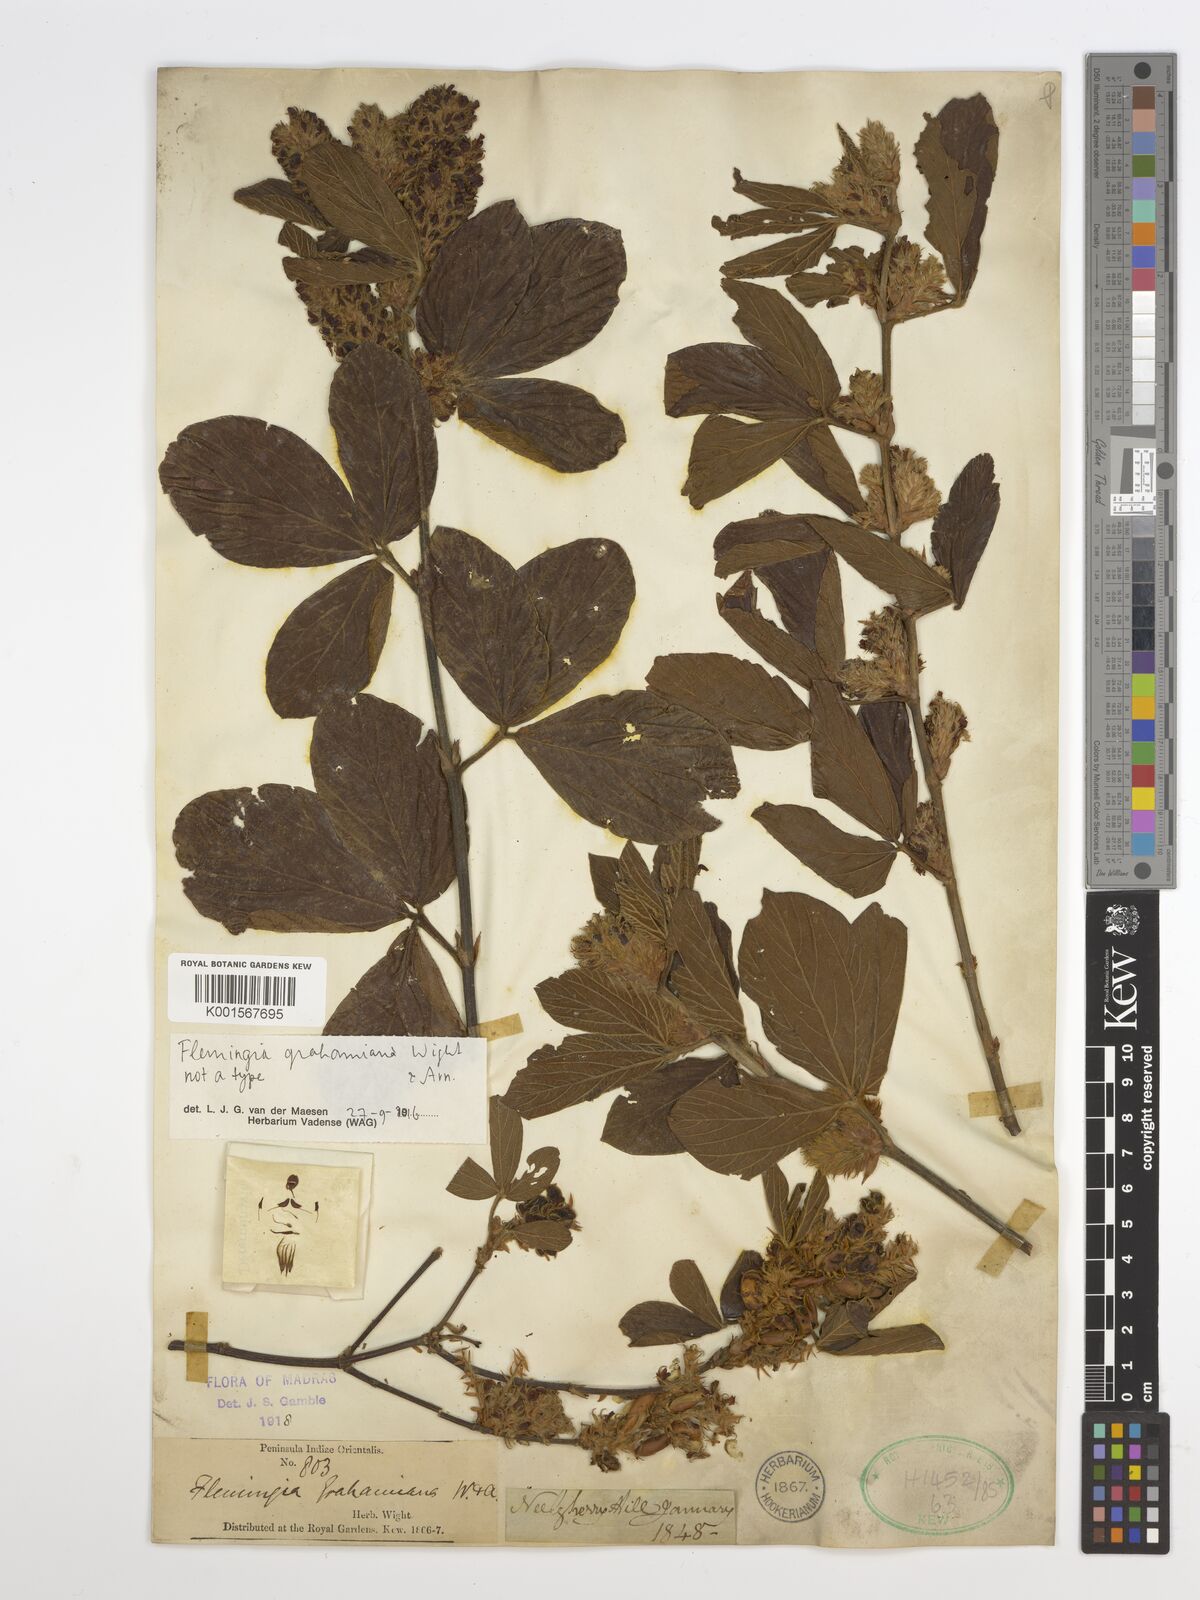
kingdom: Plantae
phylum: Tracheophyta
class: Magnoliopsida
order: Fabales
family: Fabaceae
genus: Flemingia
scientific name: Flemingia grahamiana
